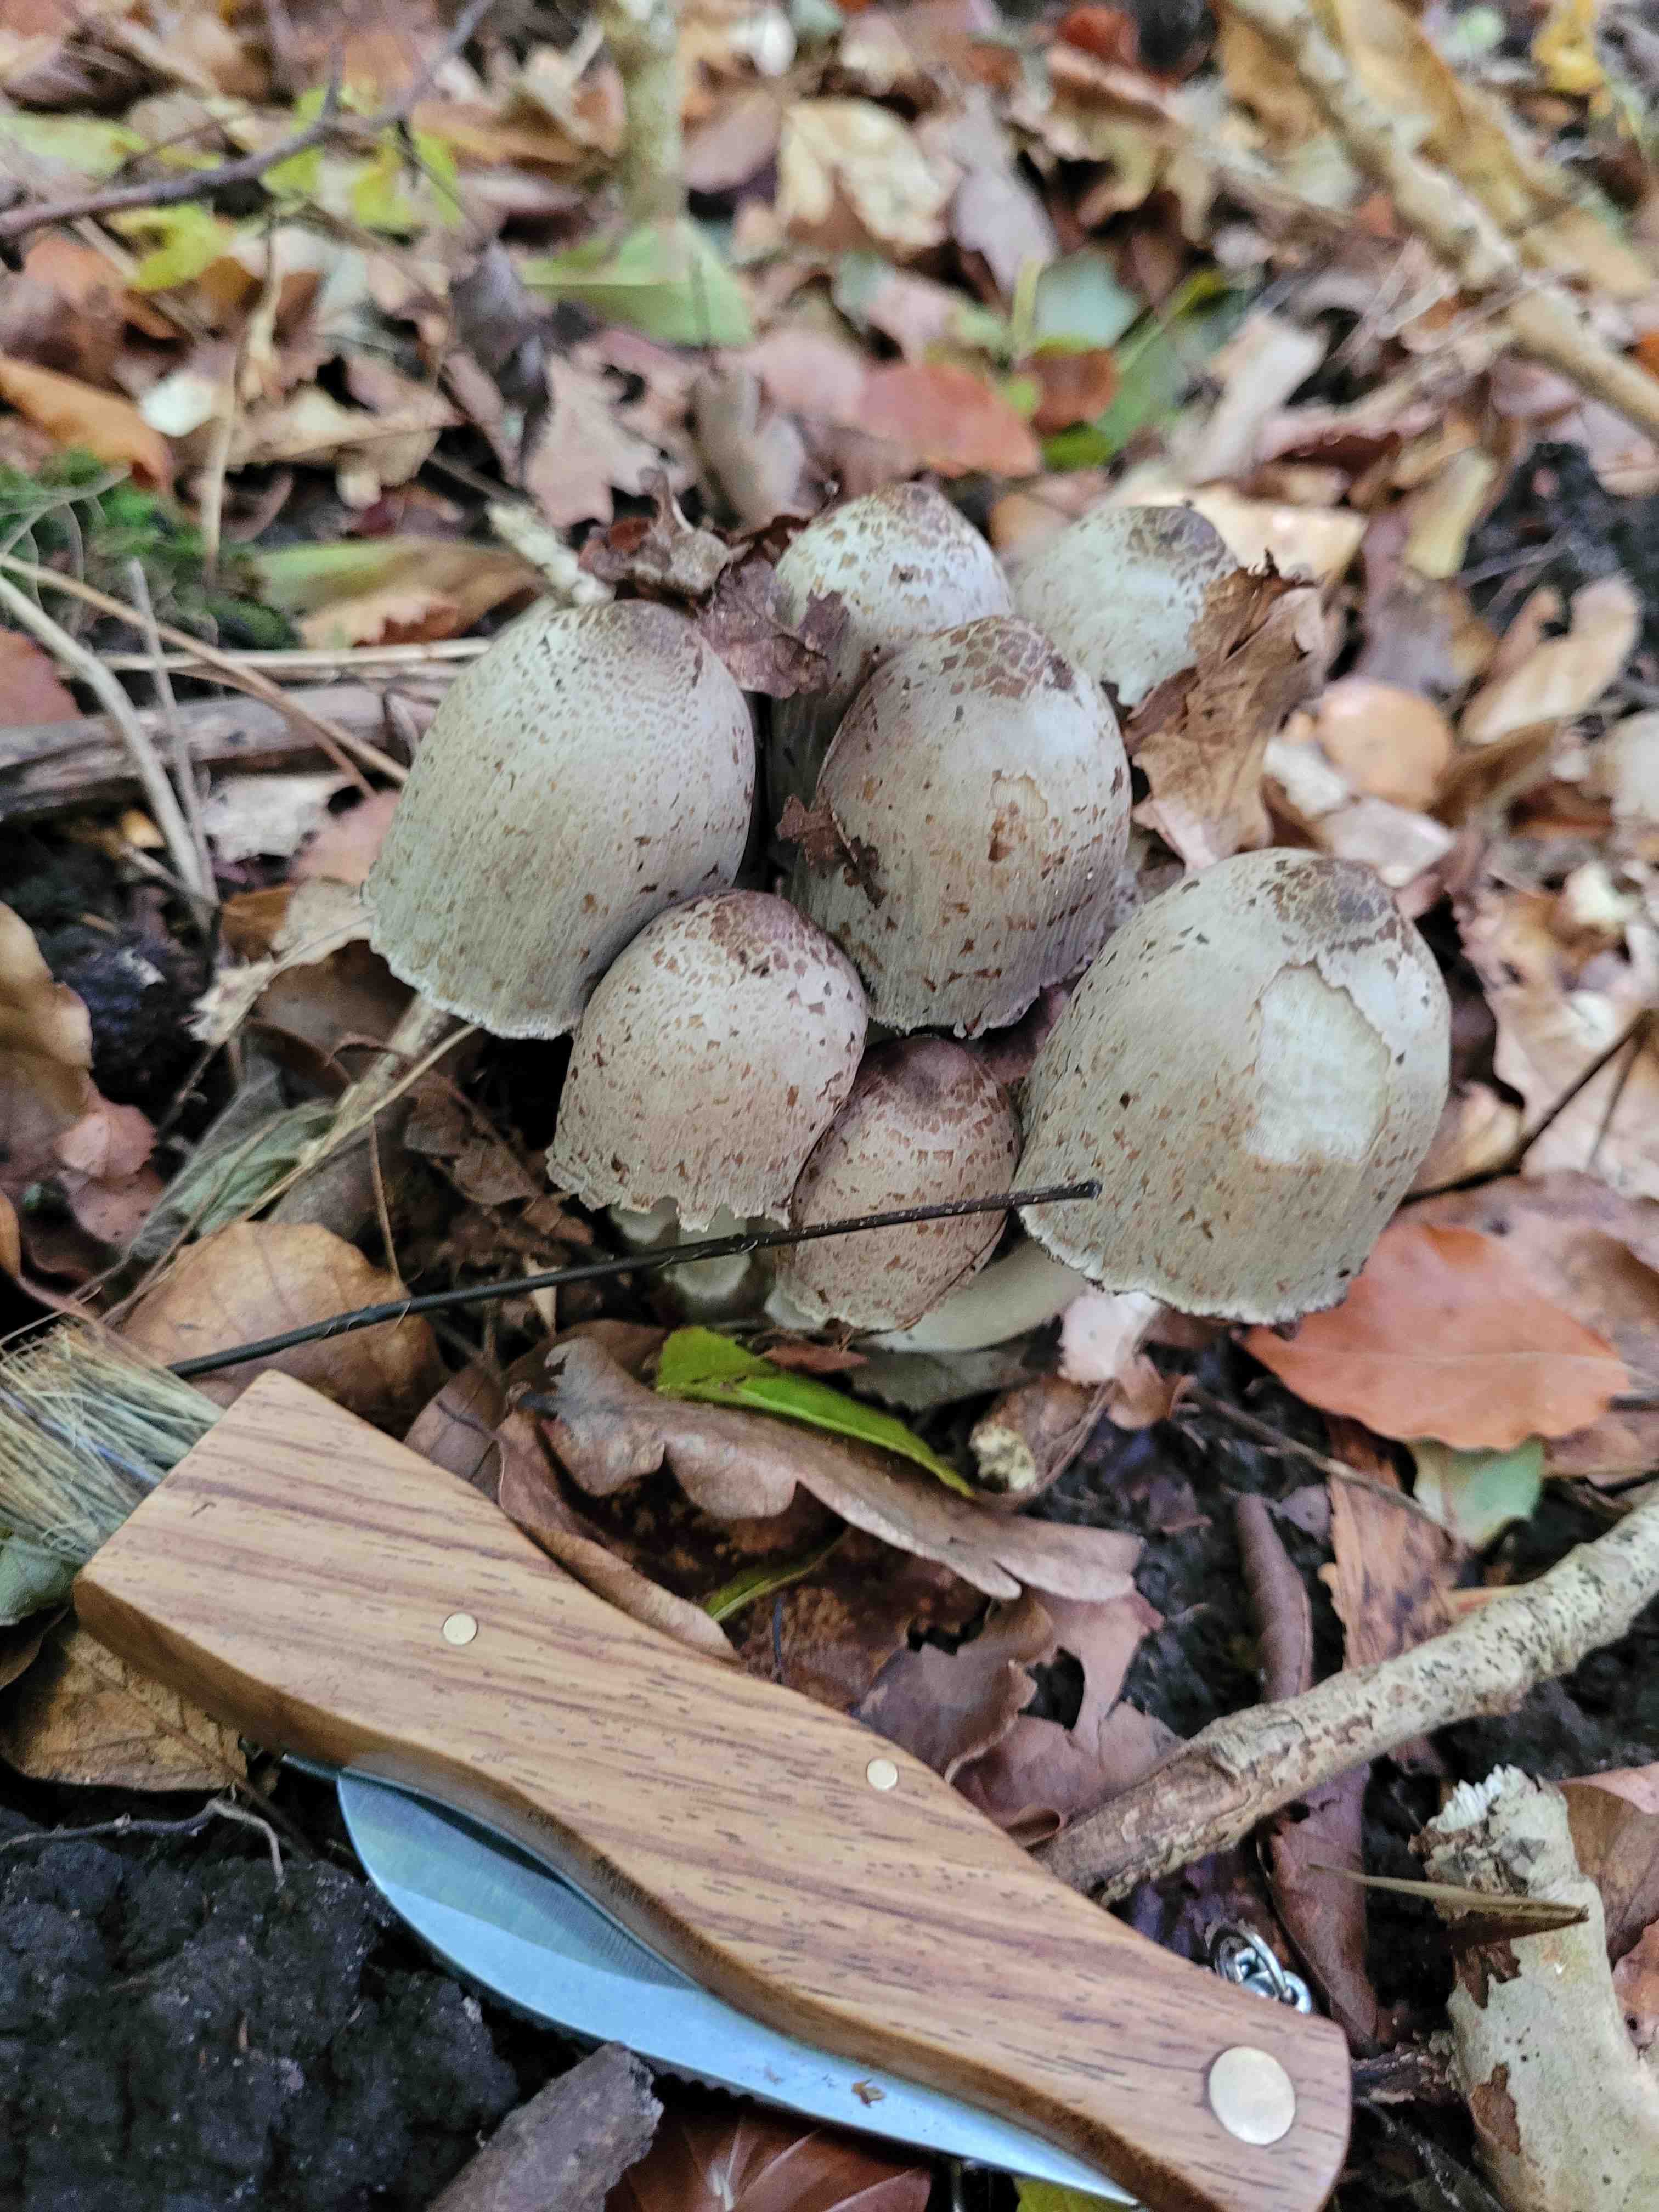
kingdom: Fungi
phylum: Basidiomycota
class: Agaricomycetes
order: Agaricales
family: Psathyrellaceae
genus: Coprinopsis
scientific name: Coprinopsis romagnesiana
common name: brunskællet blækhat
